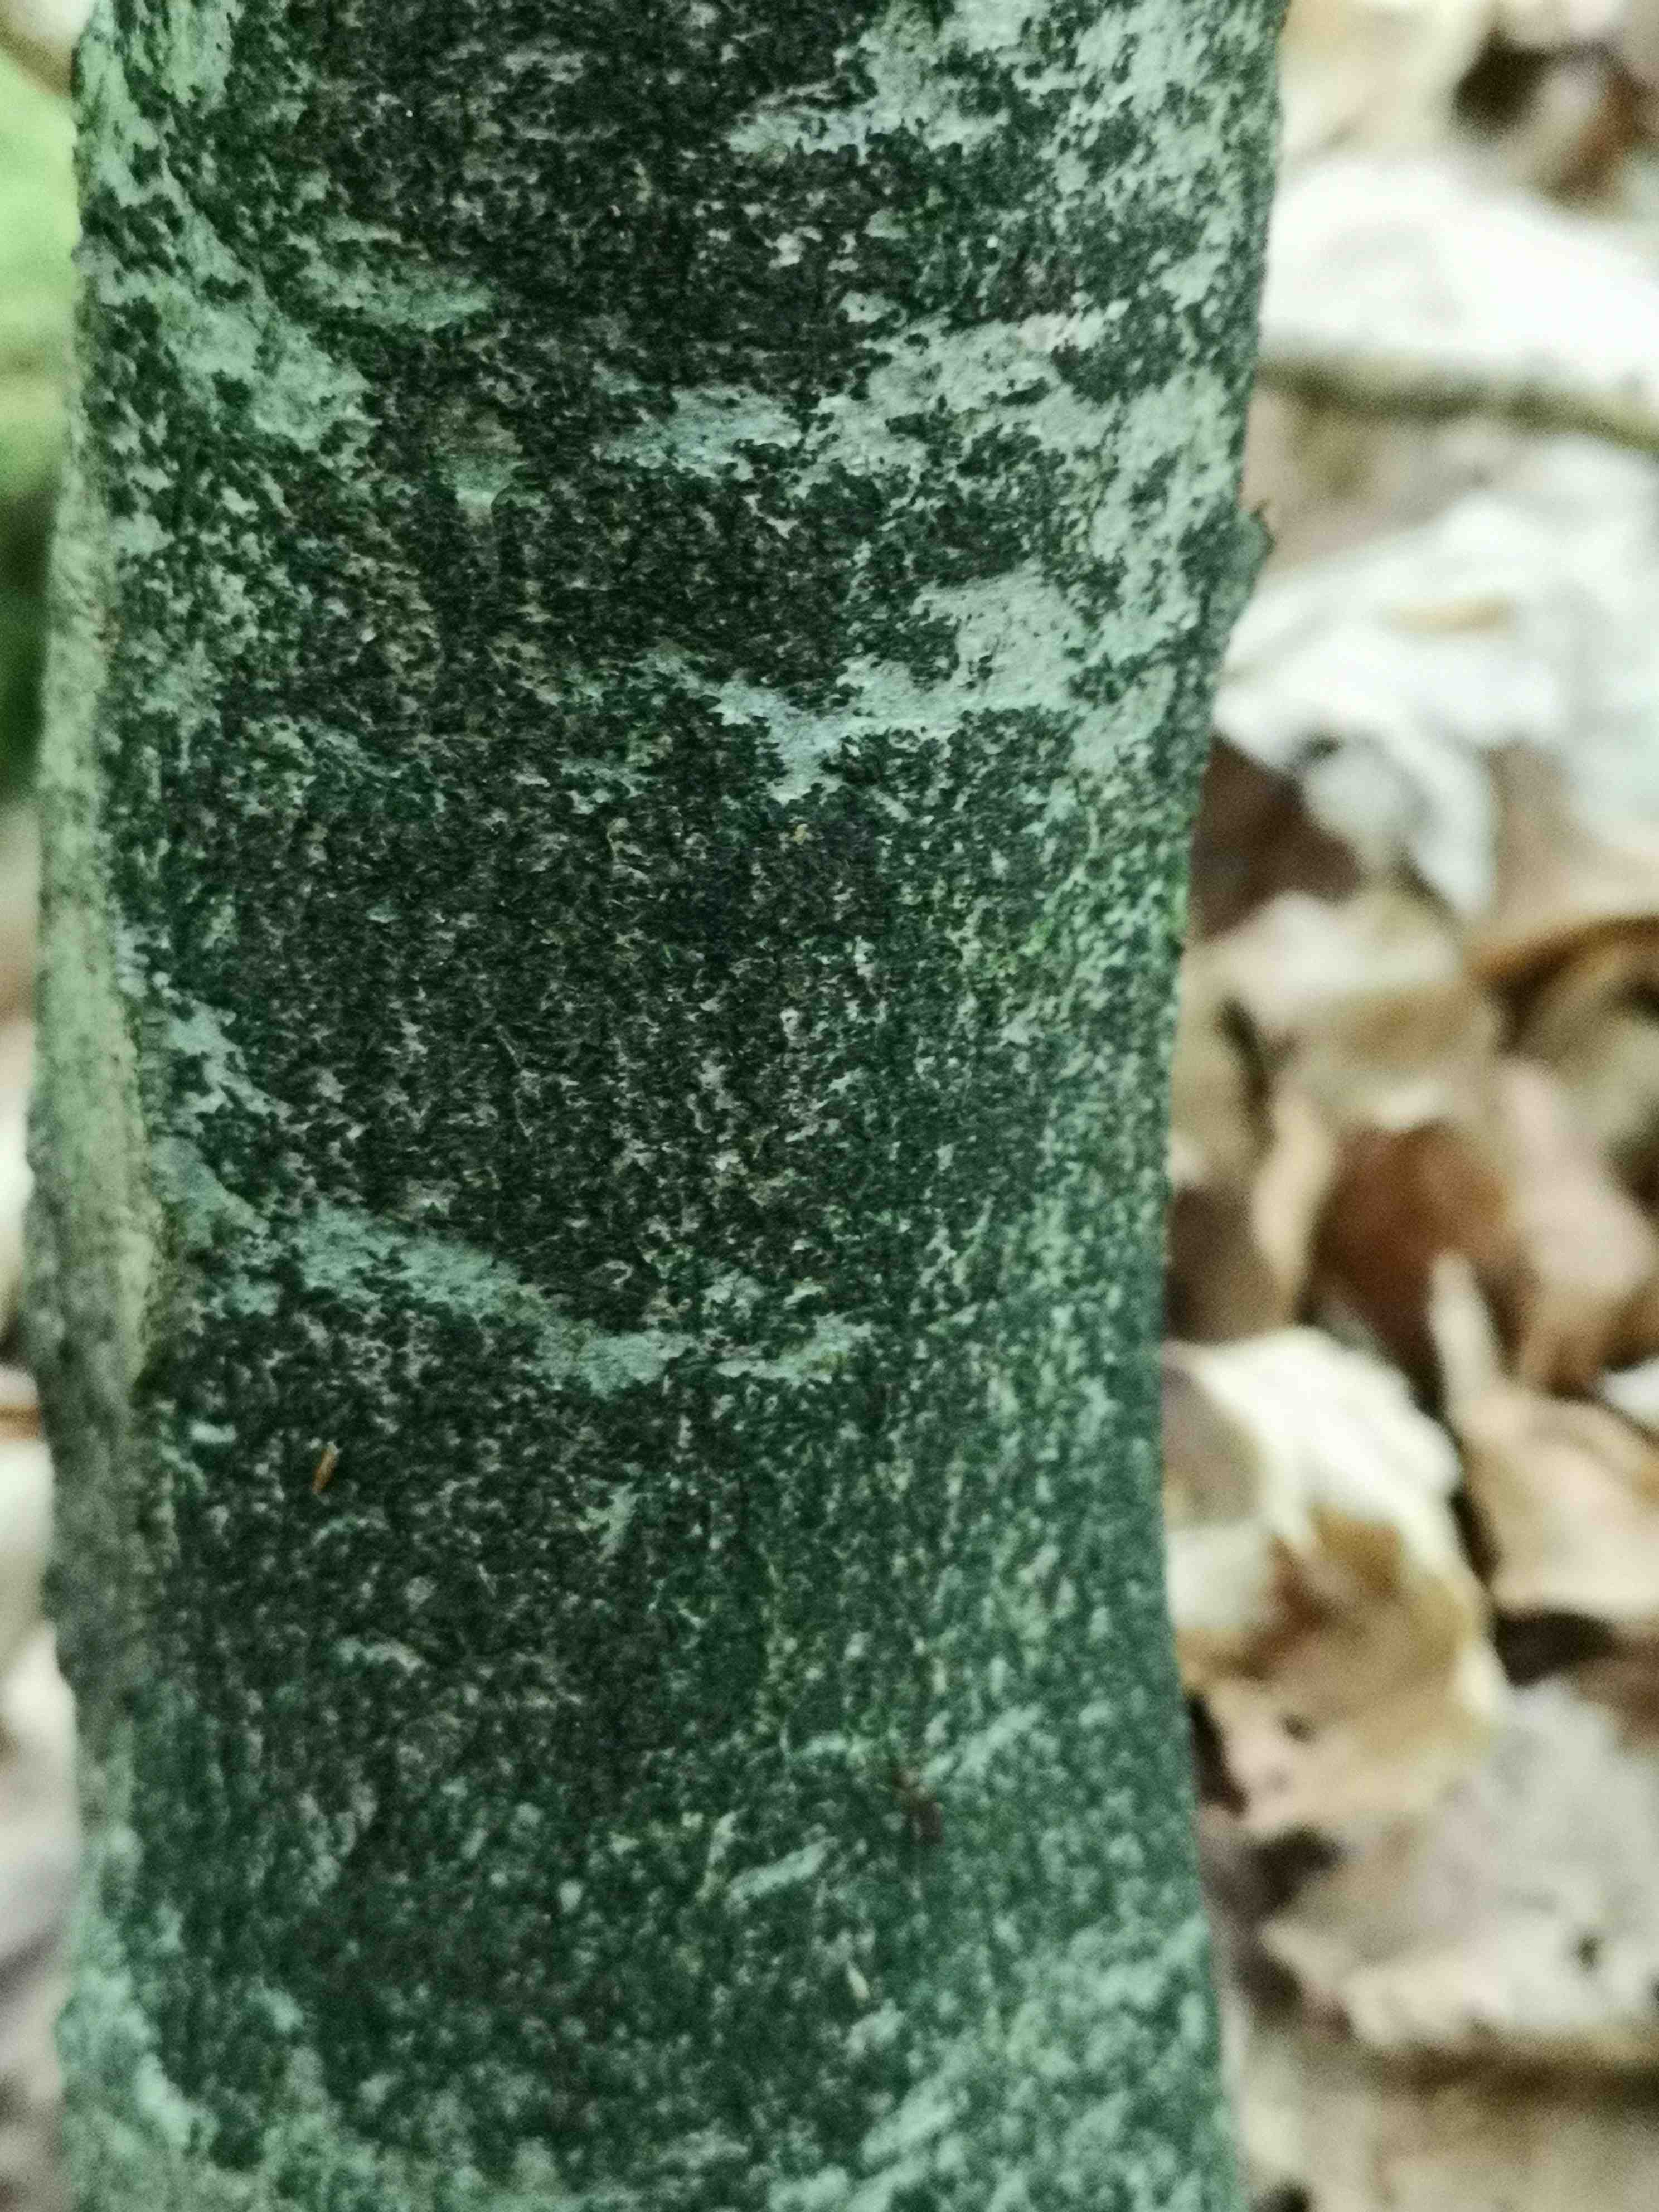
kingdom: Fungi
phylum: Ascomycota
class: Leotiomycetes
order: Rhytismatales
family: Ascodichaenaceae
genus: Ascodichaena
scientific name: Ascodichaena rugosa
